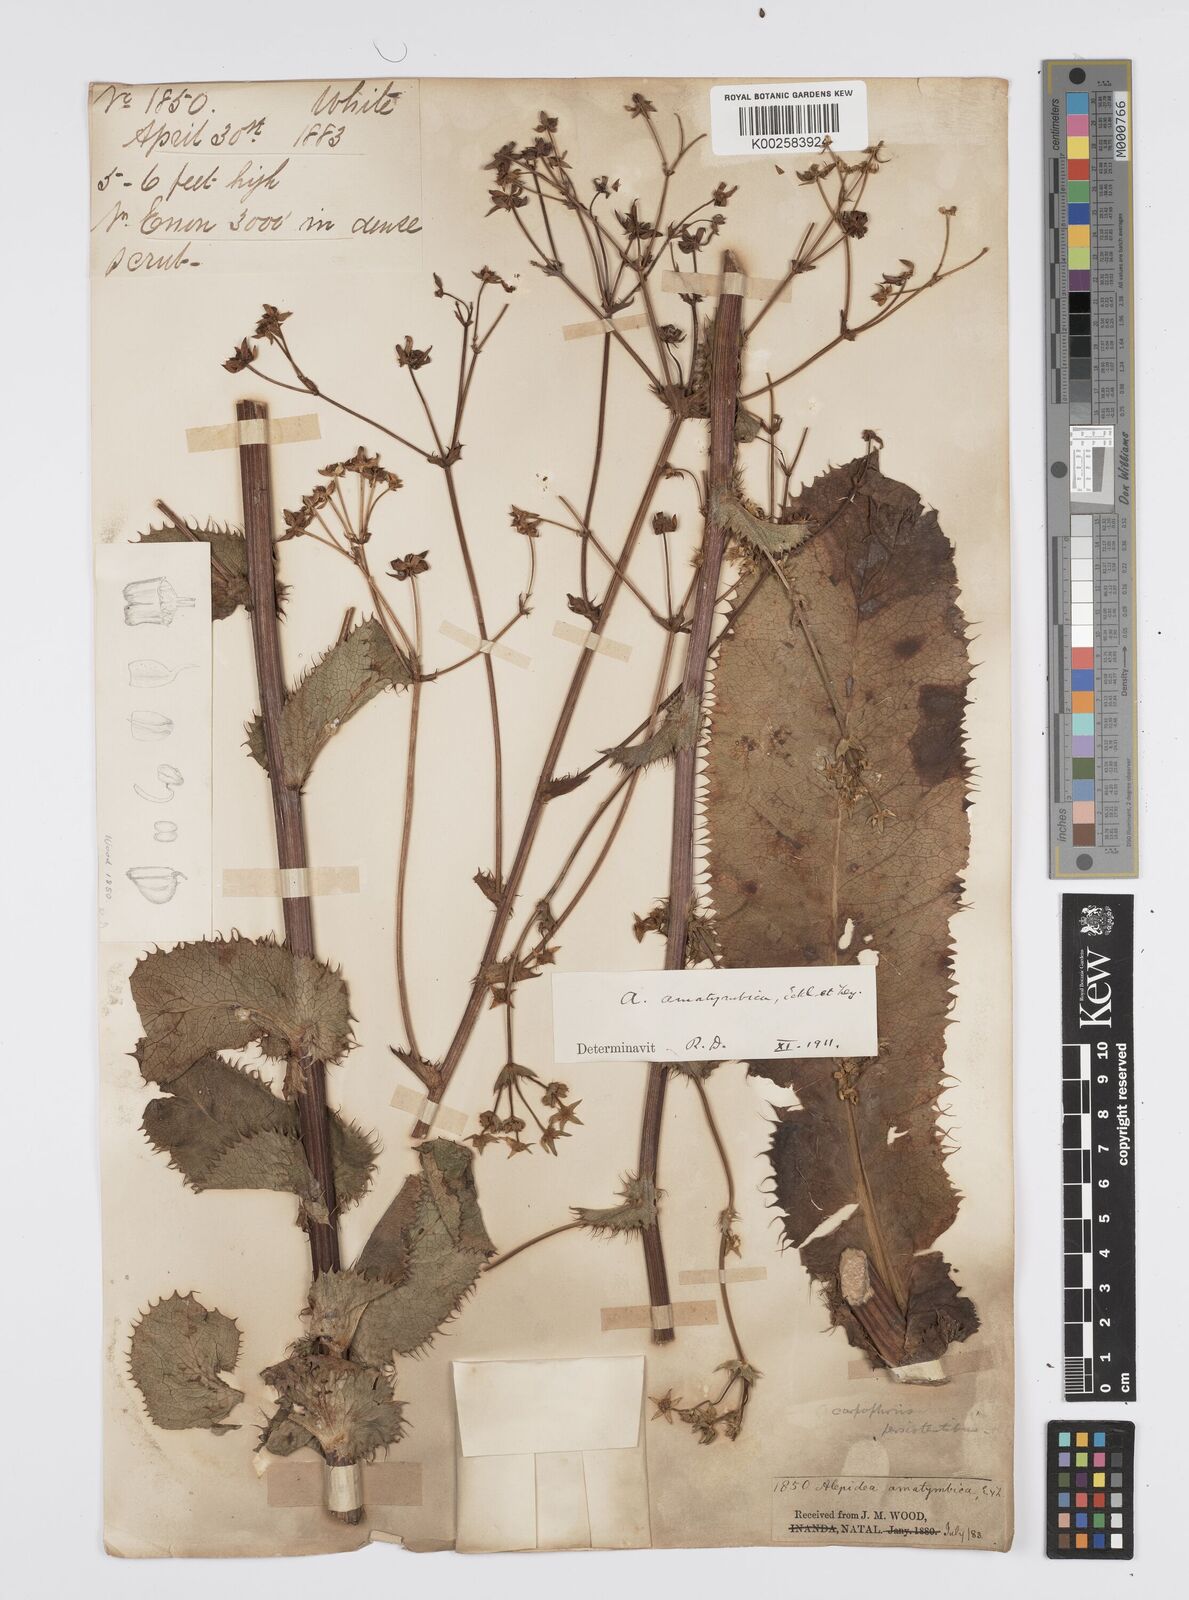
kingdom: Plantae
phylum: Tracheophyta
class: Magnoliopsida
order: Apiales
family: Apiaceae
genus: Alepidea
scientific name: Alepidea amatymbica
